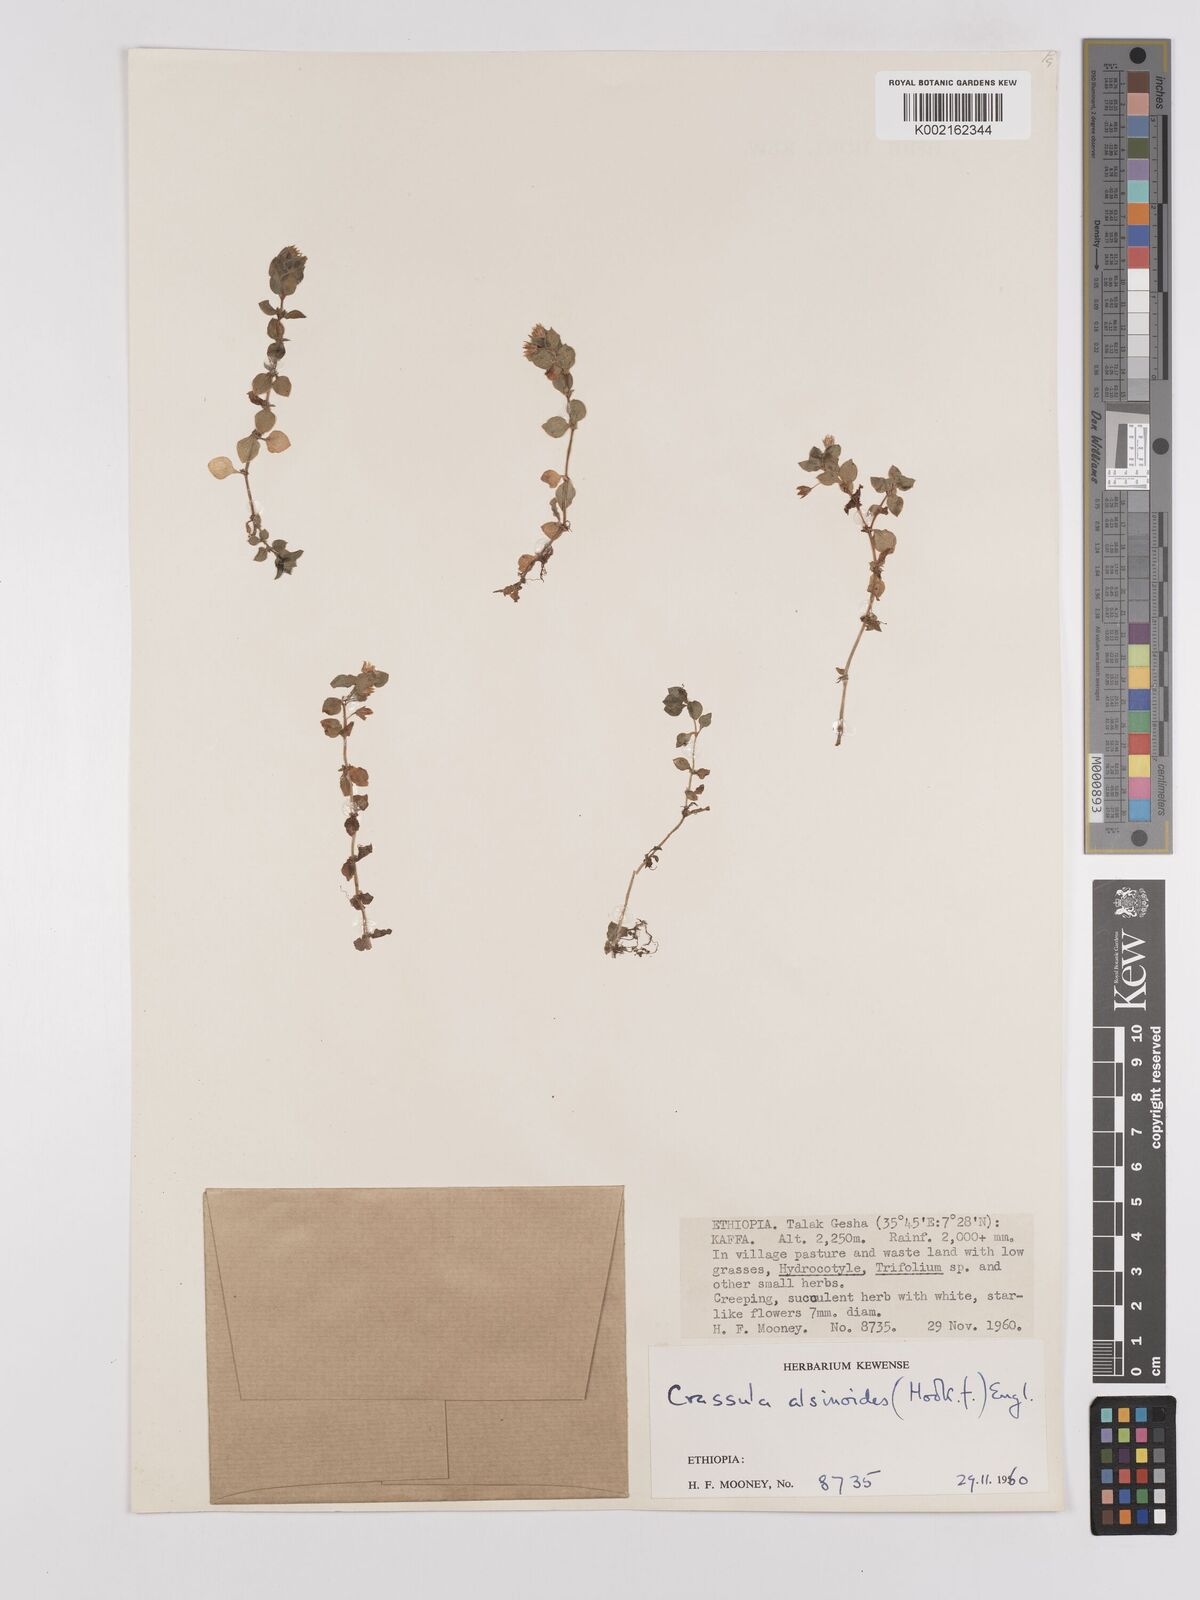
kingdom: Plantae
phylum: Tracheophyta
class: Magnoliopsida
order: Saxifragales
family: Crassulaceae
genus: Crassula
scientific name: Crassula alsinoides
